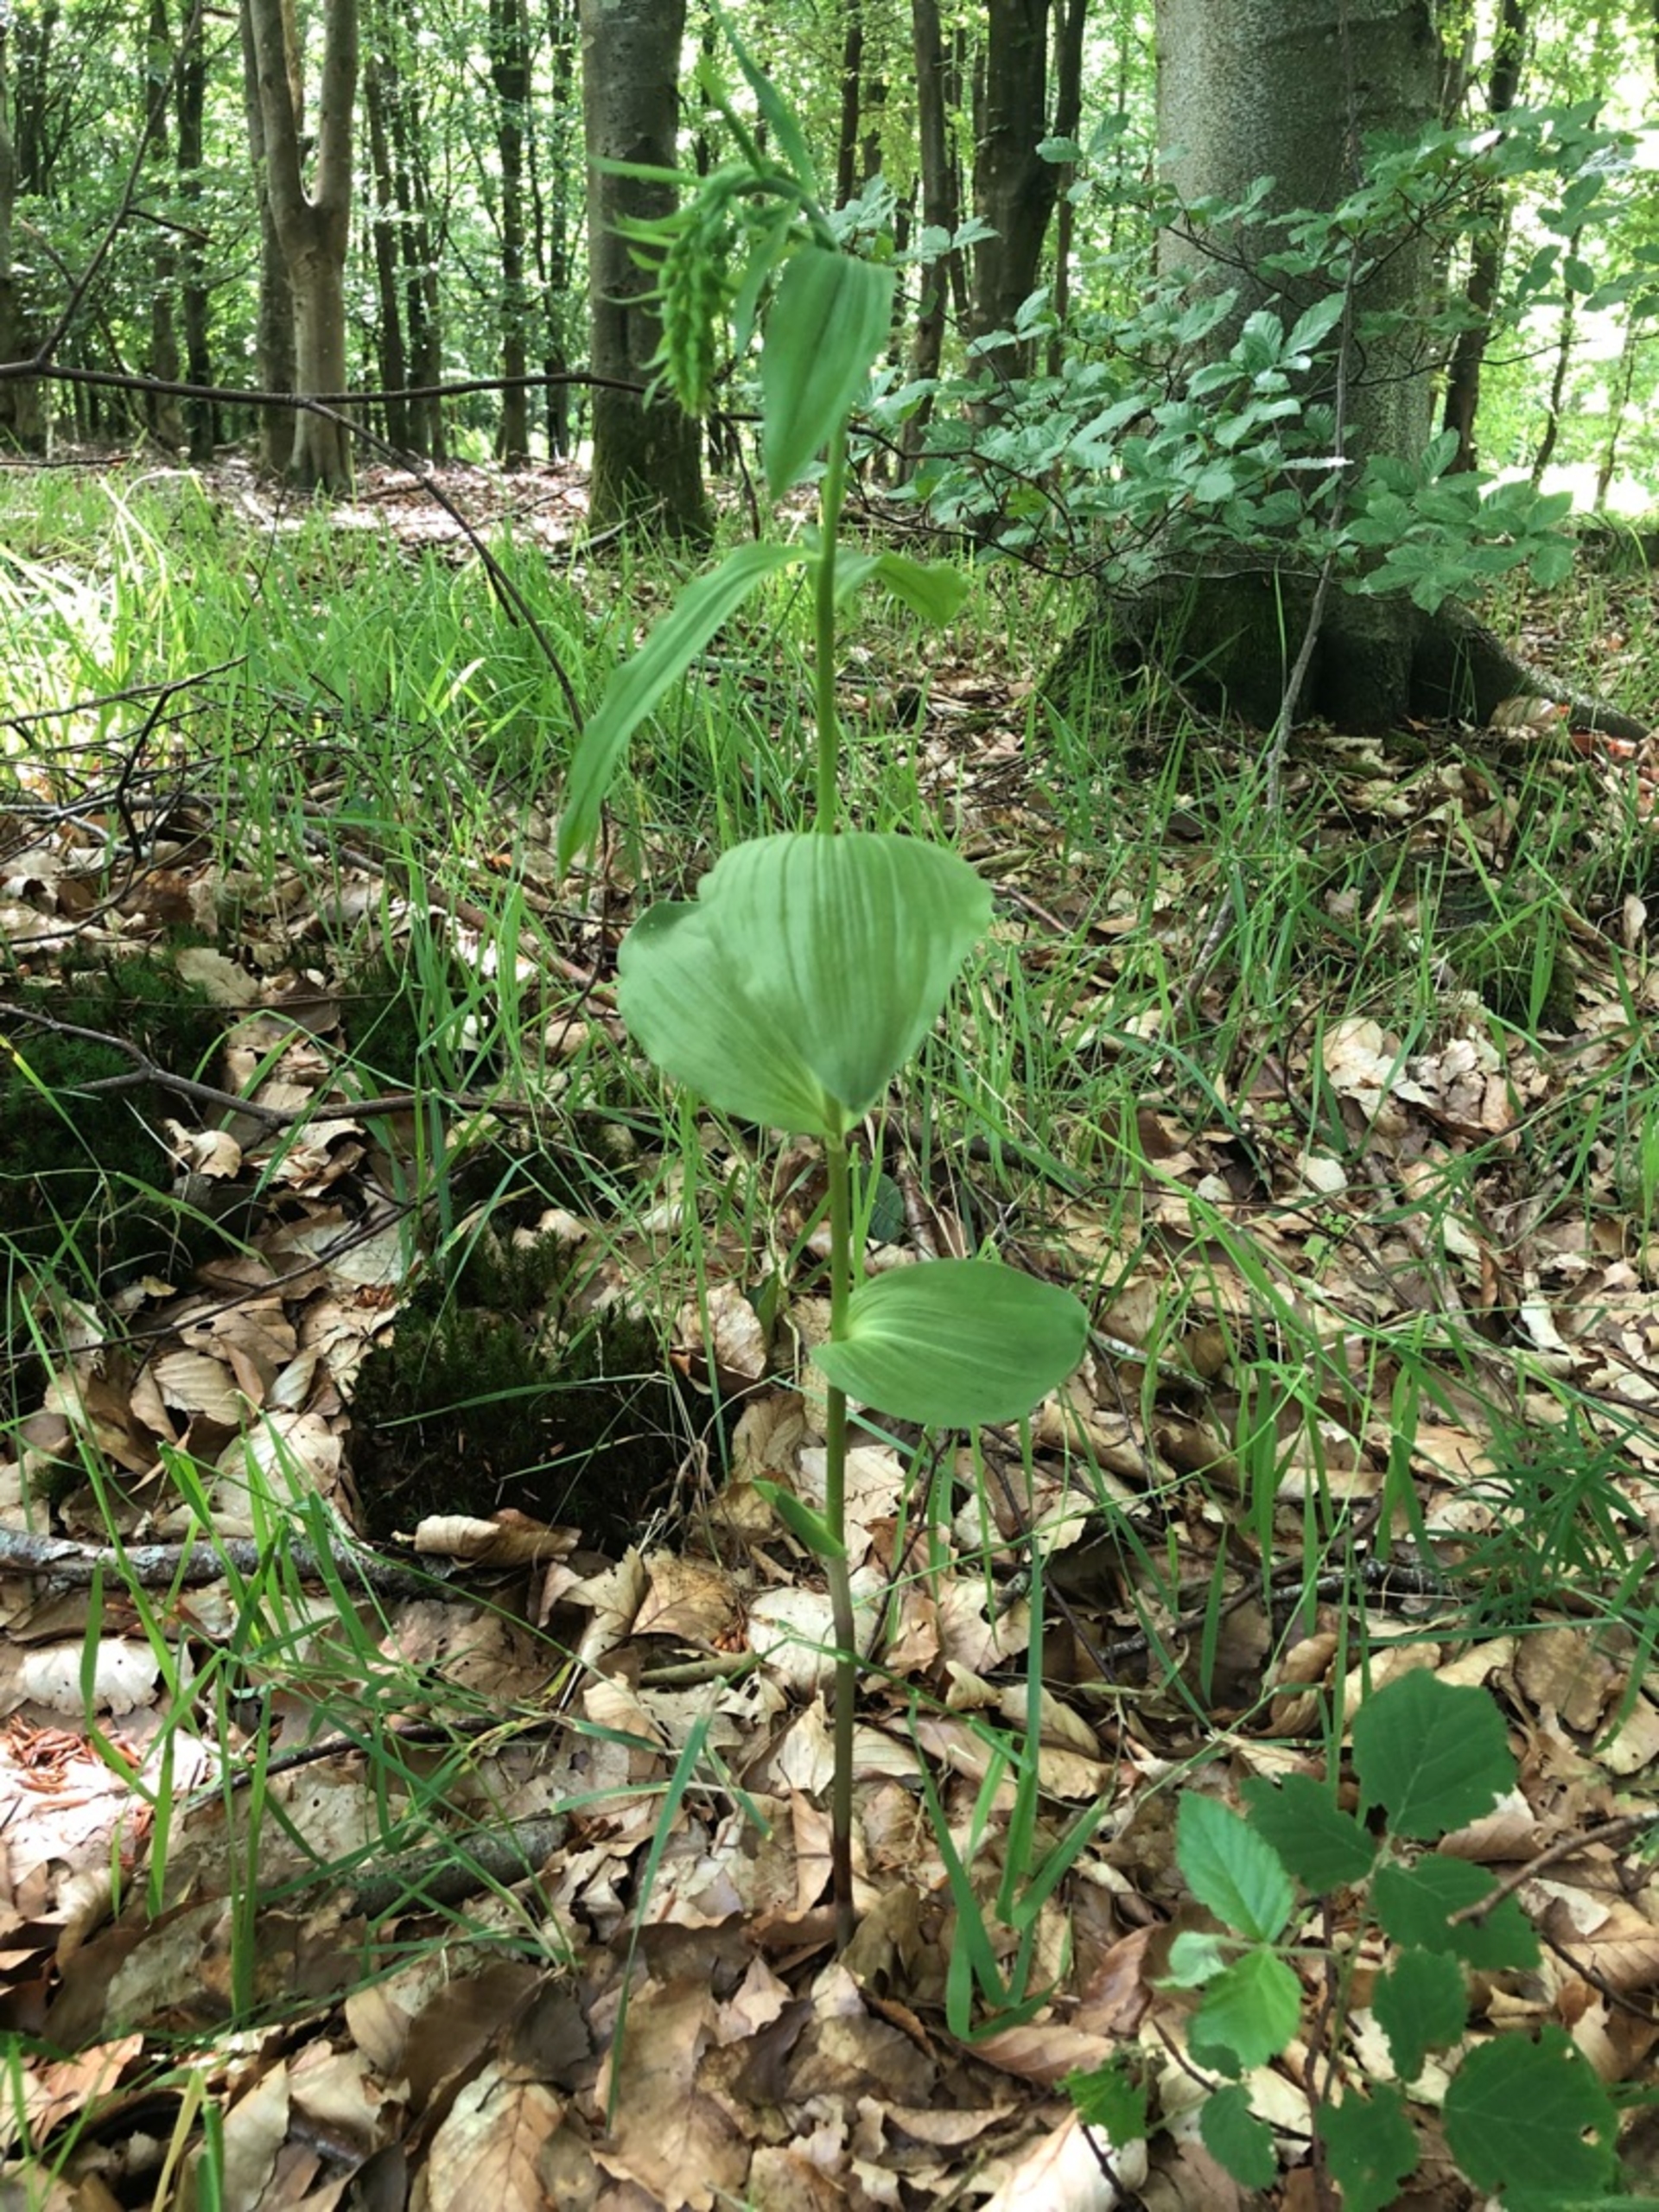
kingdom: Plantae
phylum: Tracheophyta
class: Liliopsida
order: Asparagales
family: Orchidaceae
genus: Epipactis
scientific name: Epipactis helleborine
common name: Skov-hullæbe
